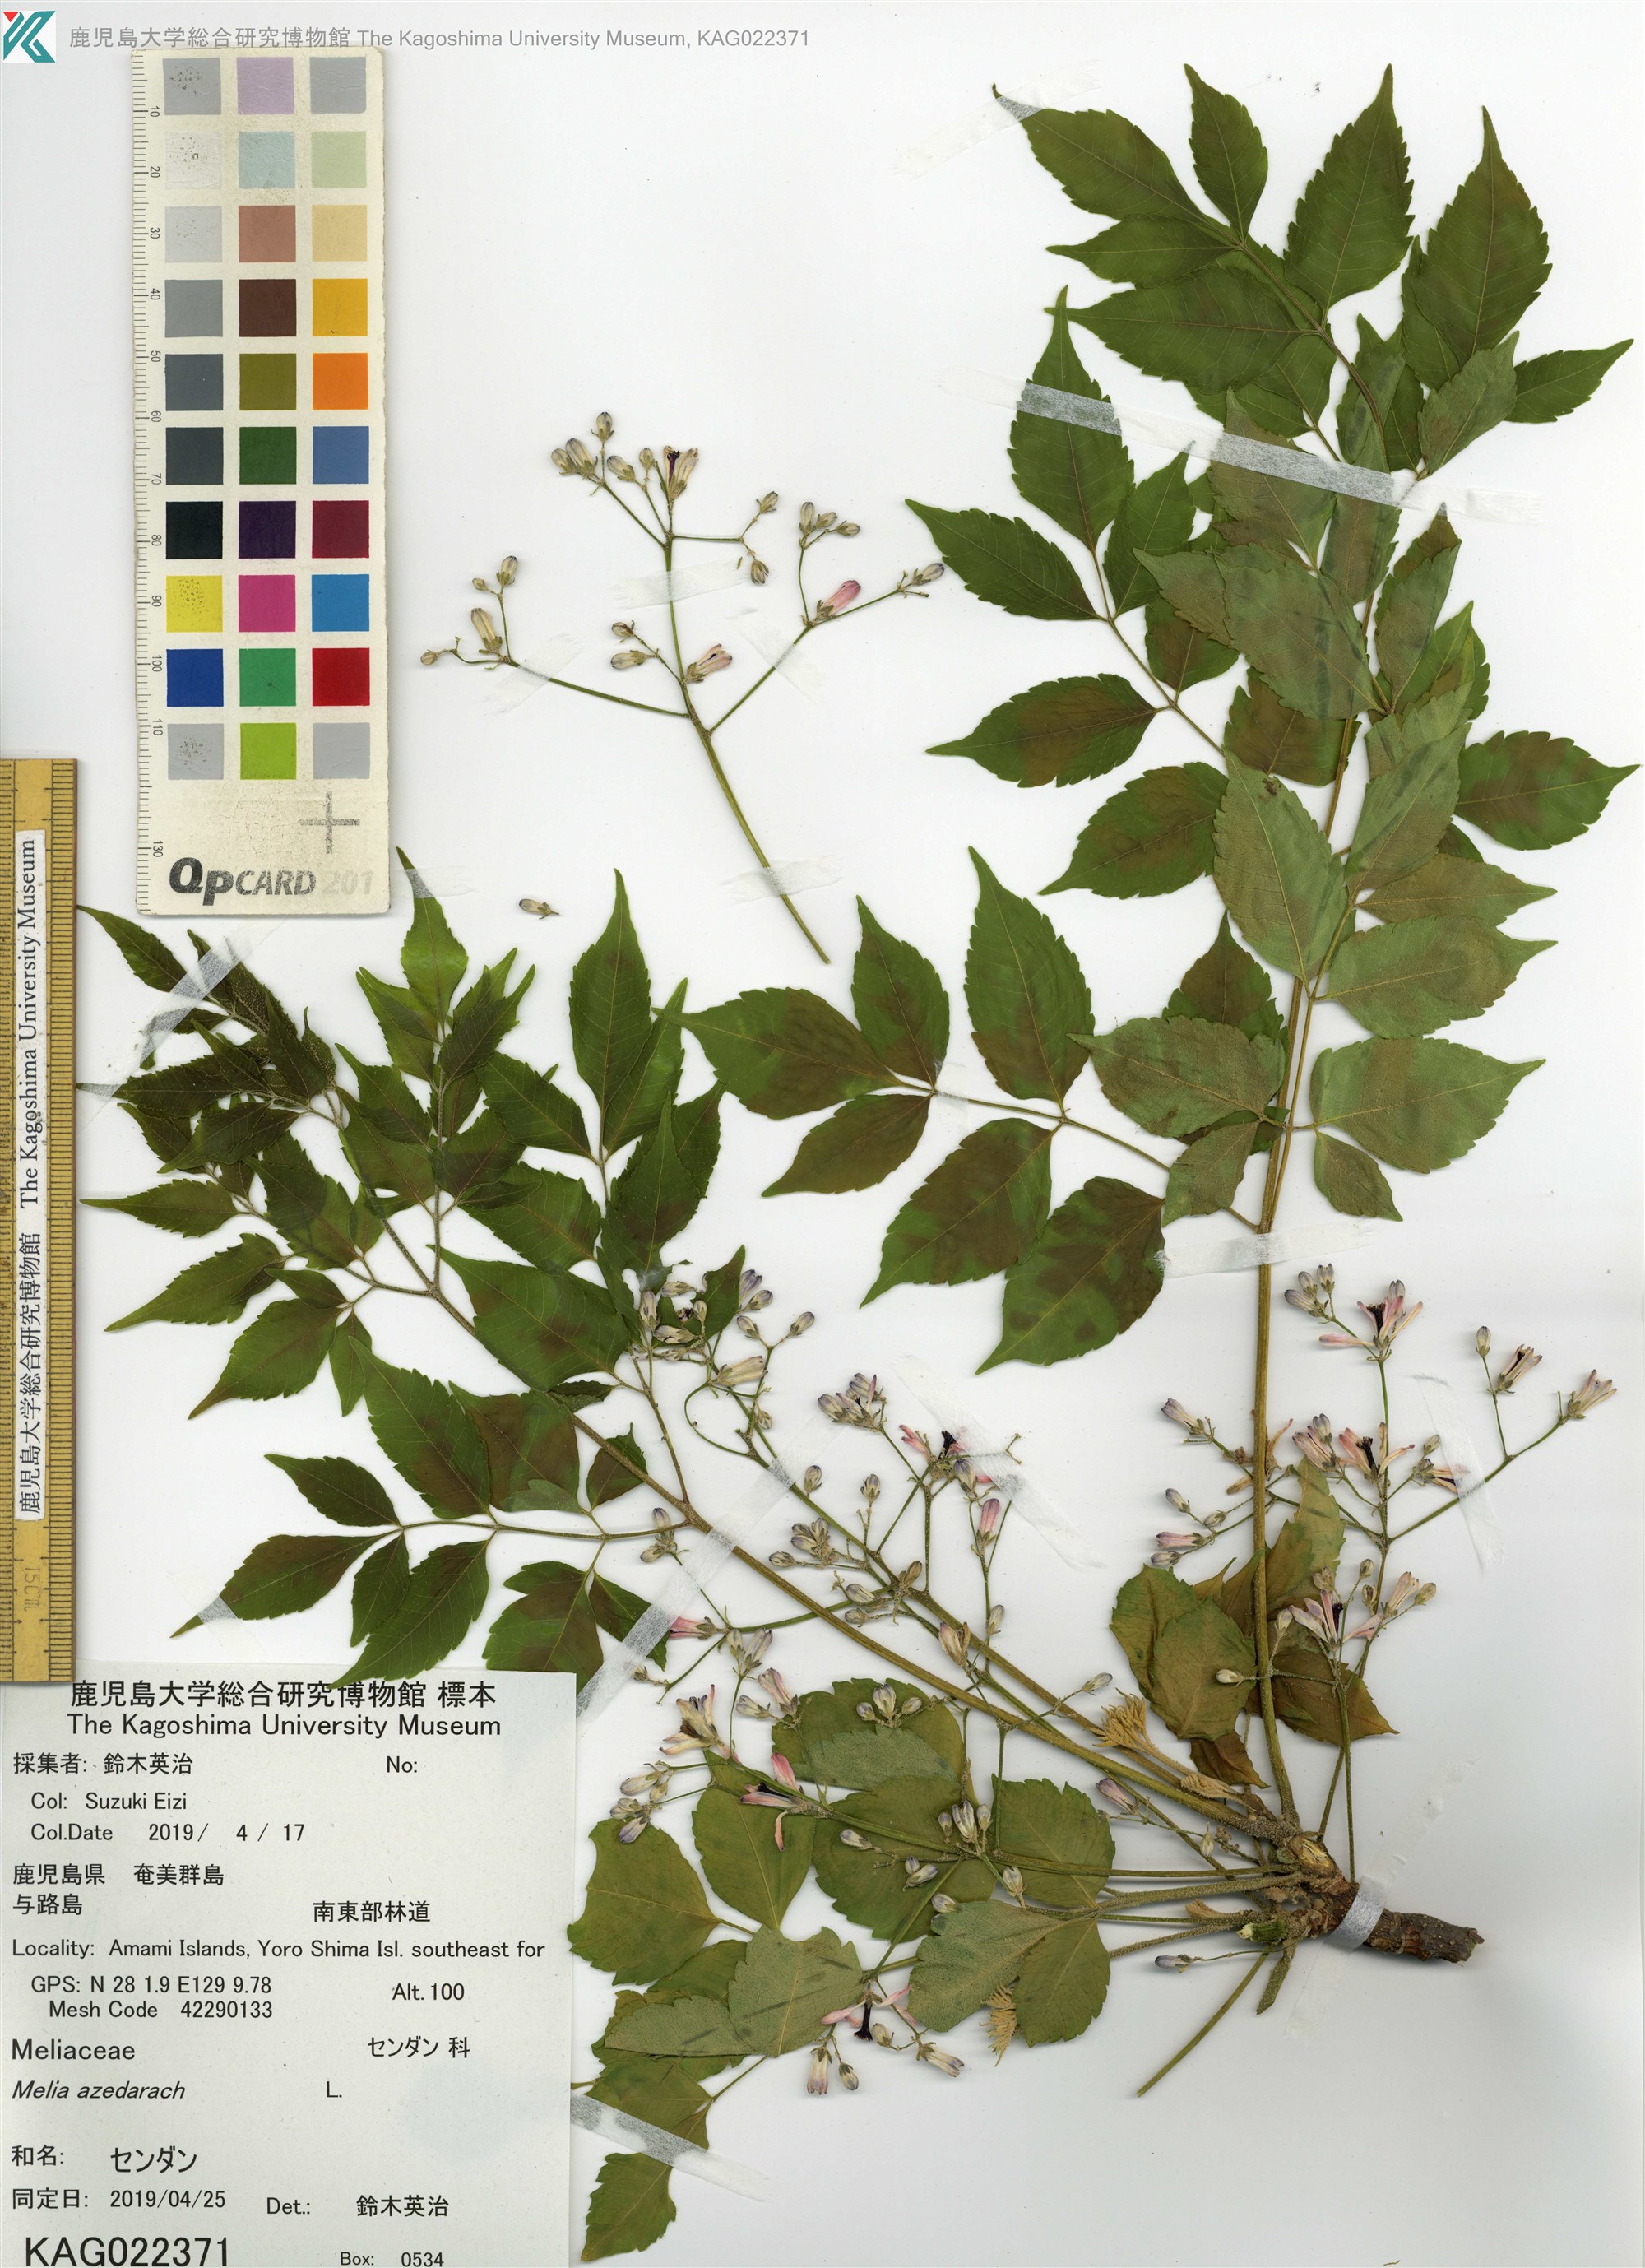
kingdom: Plantae
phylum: Tracheophyta
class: Magnoliopsida
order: Sapindales
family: Meliaceae
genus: Melia
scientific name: Melia azedarach
